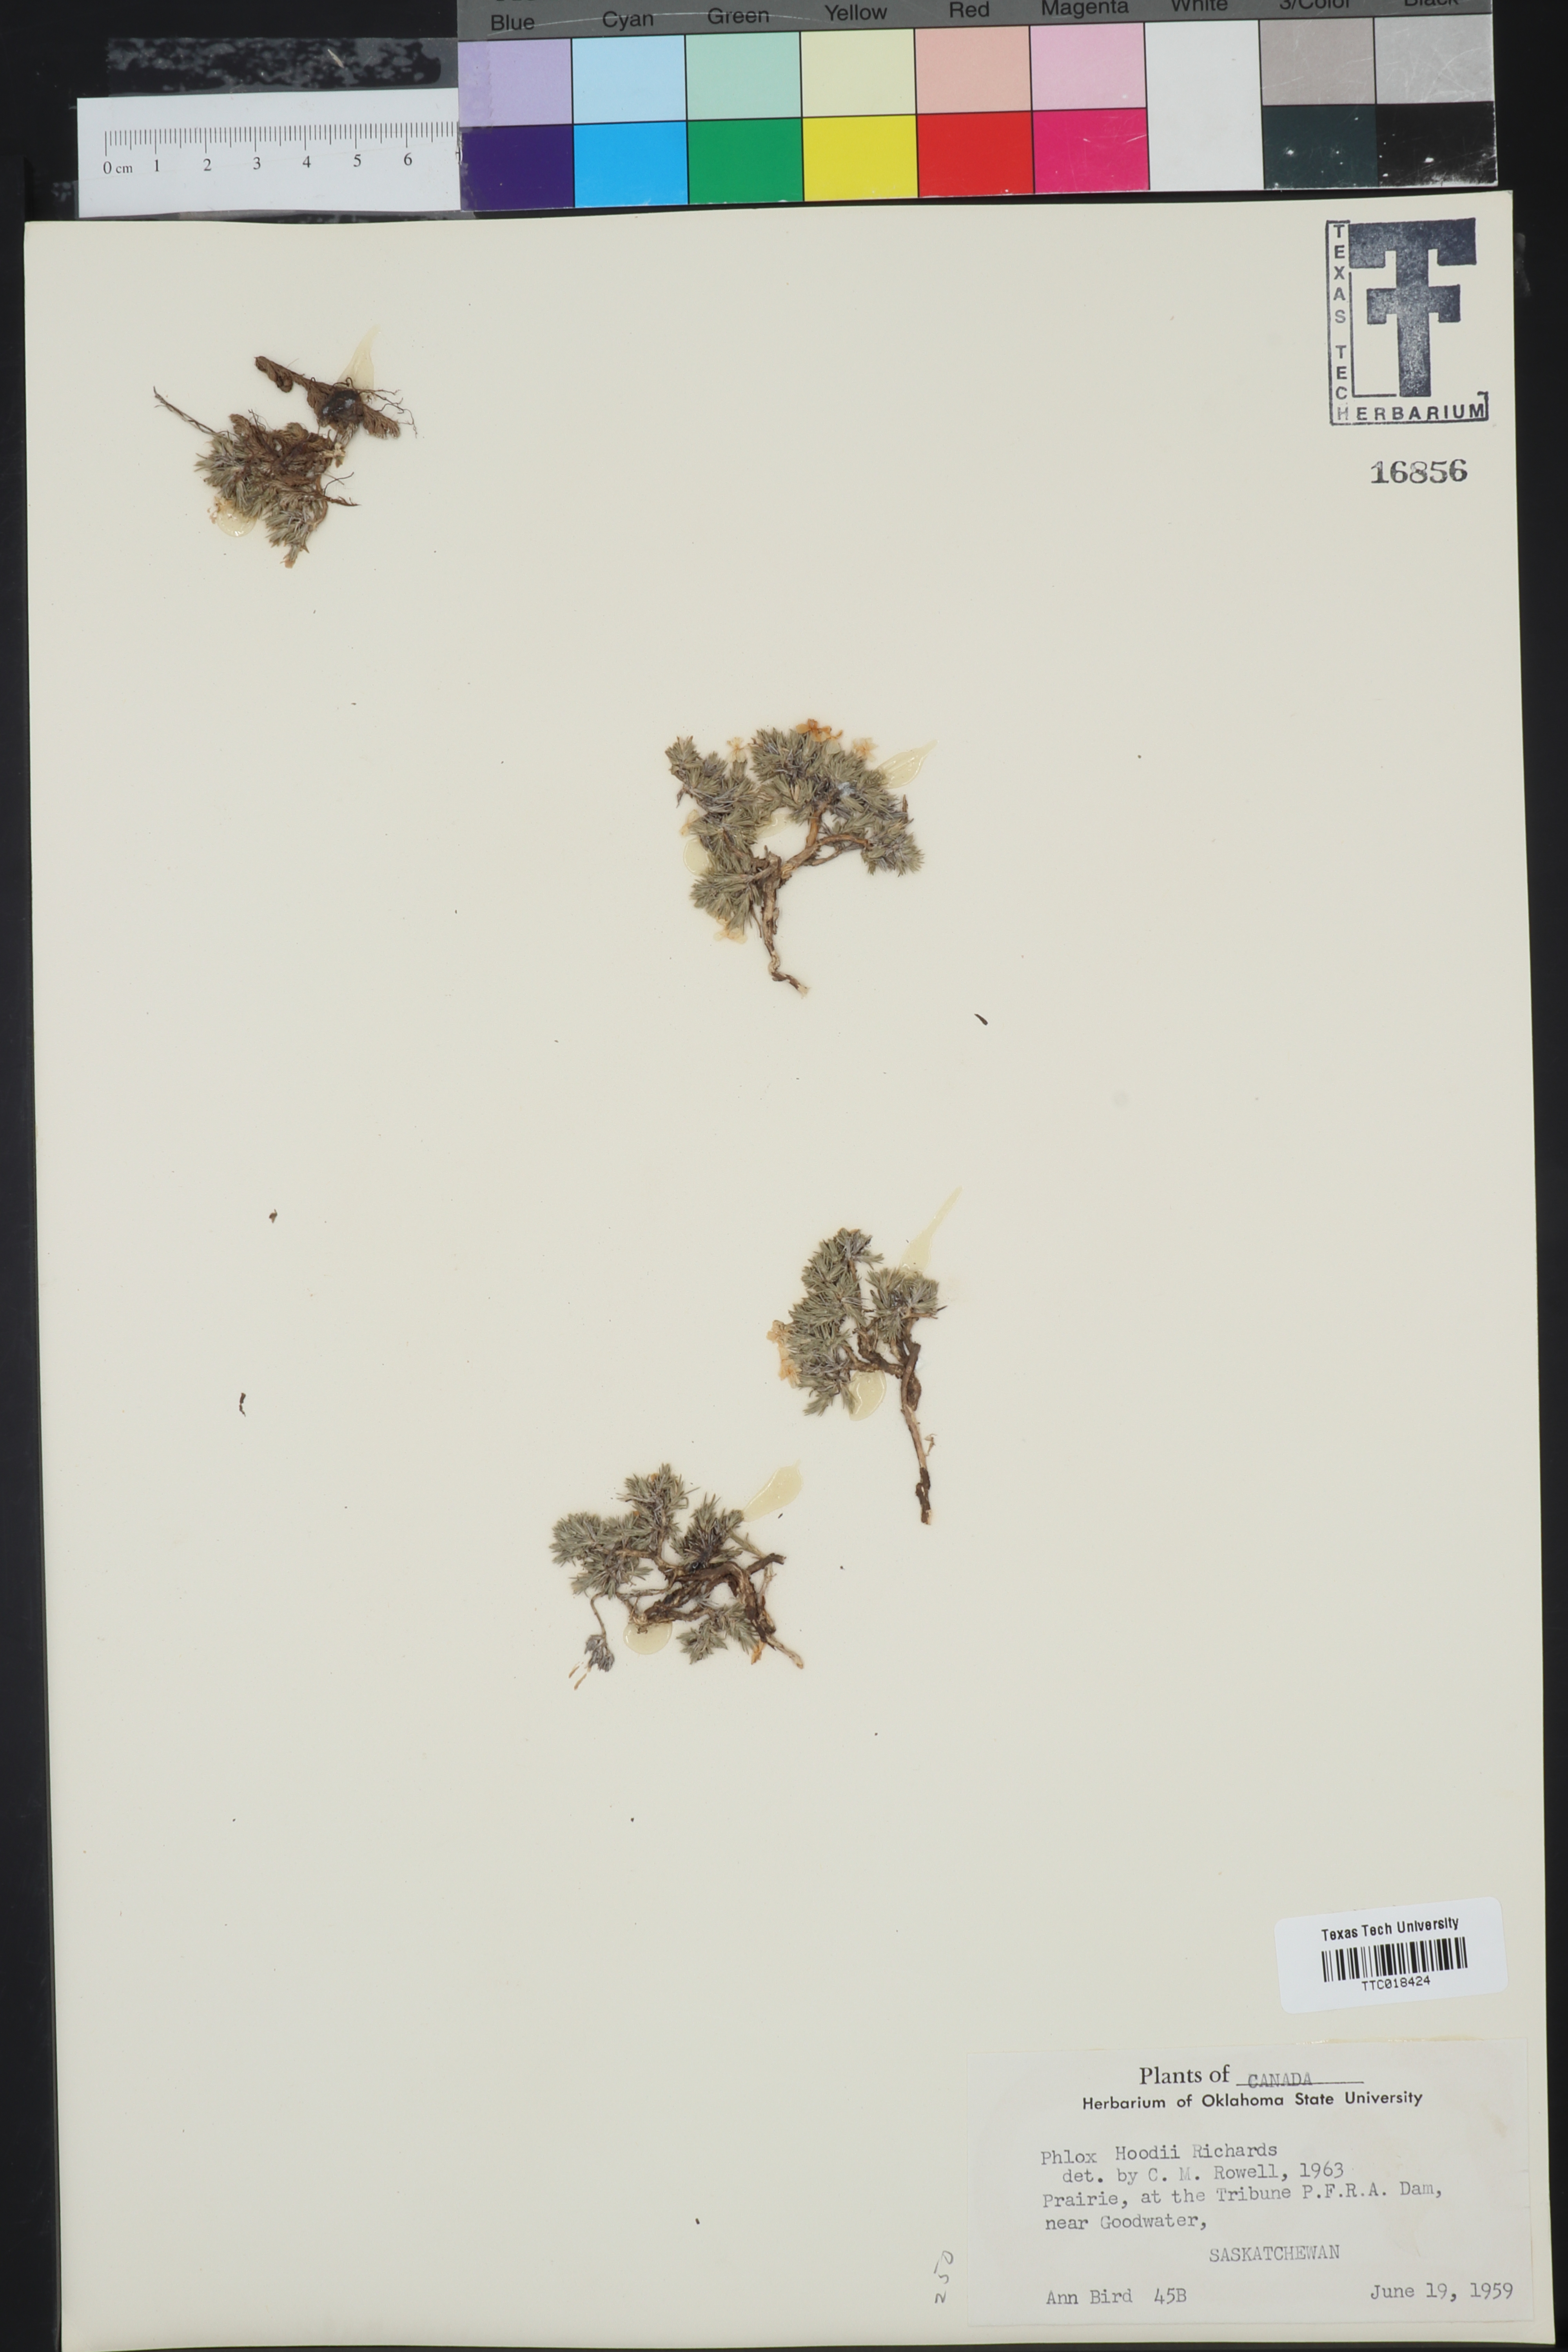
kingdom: Plantae
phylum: Tracheophyta
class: Magnoliopsida
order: Ericales
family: Polemoniaceae
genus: Phlox
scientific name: Phlox hoodii
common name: Moss phlox
